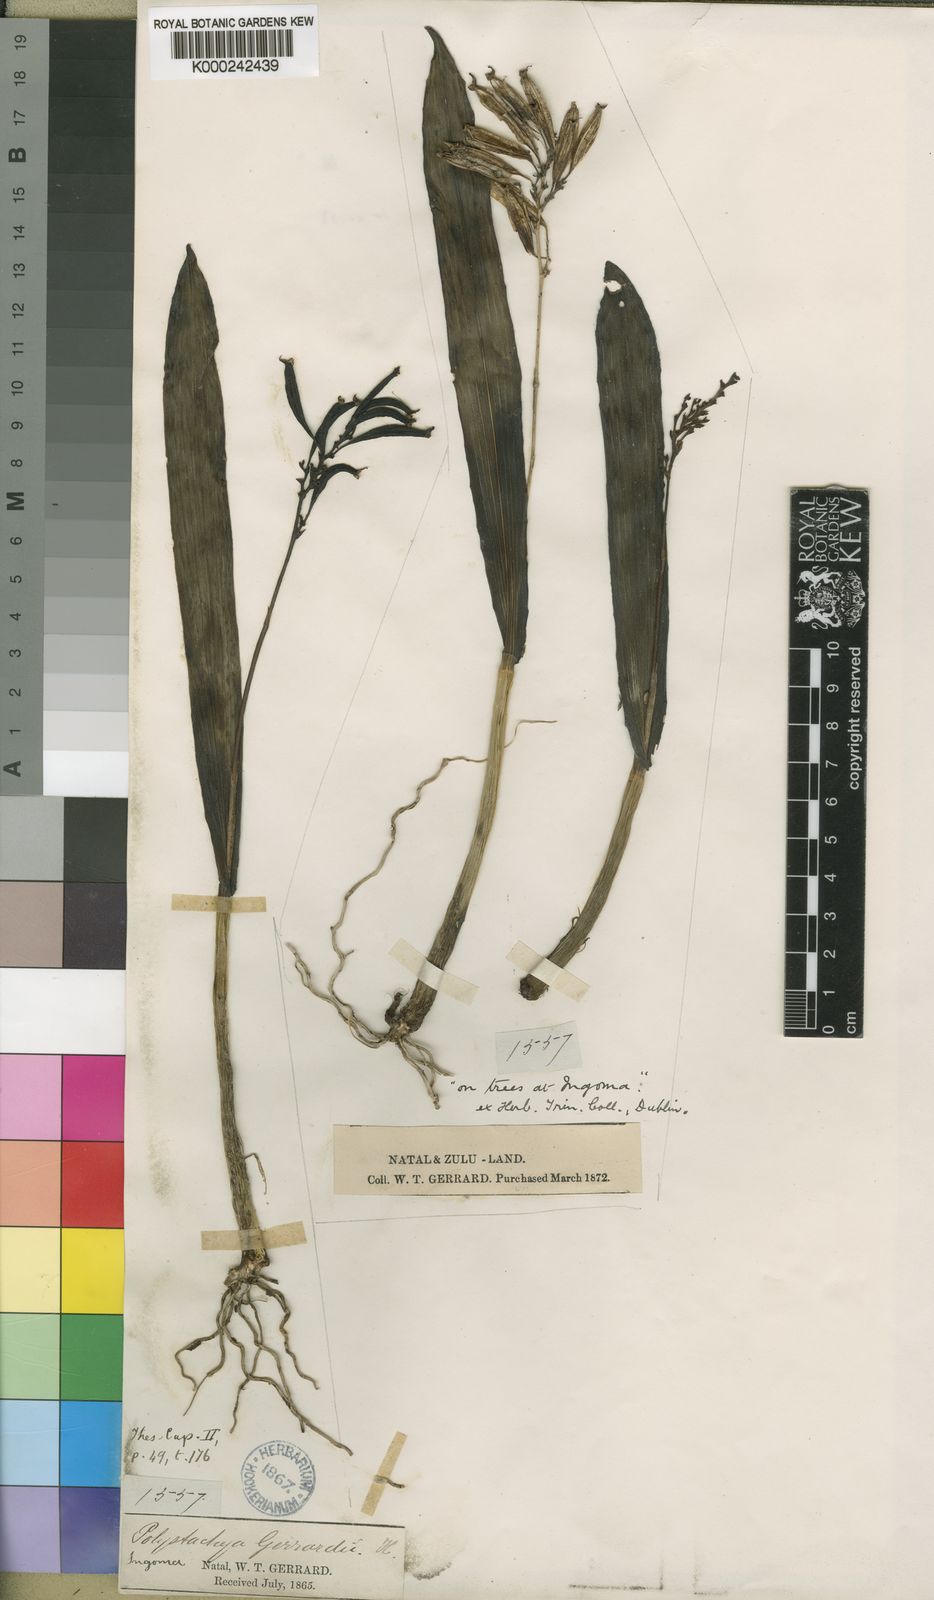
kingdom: Plantae
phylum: Tracheophyta
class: Liliopsida
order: Asparagales
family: Orchidaceae
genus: Polystachya
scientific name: Polystachya cultriformis
